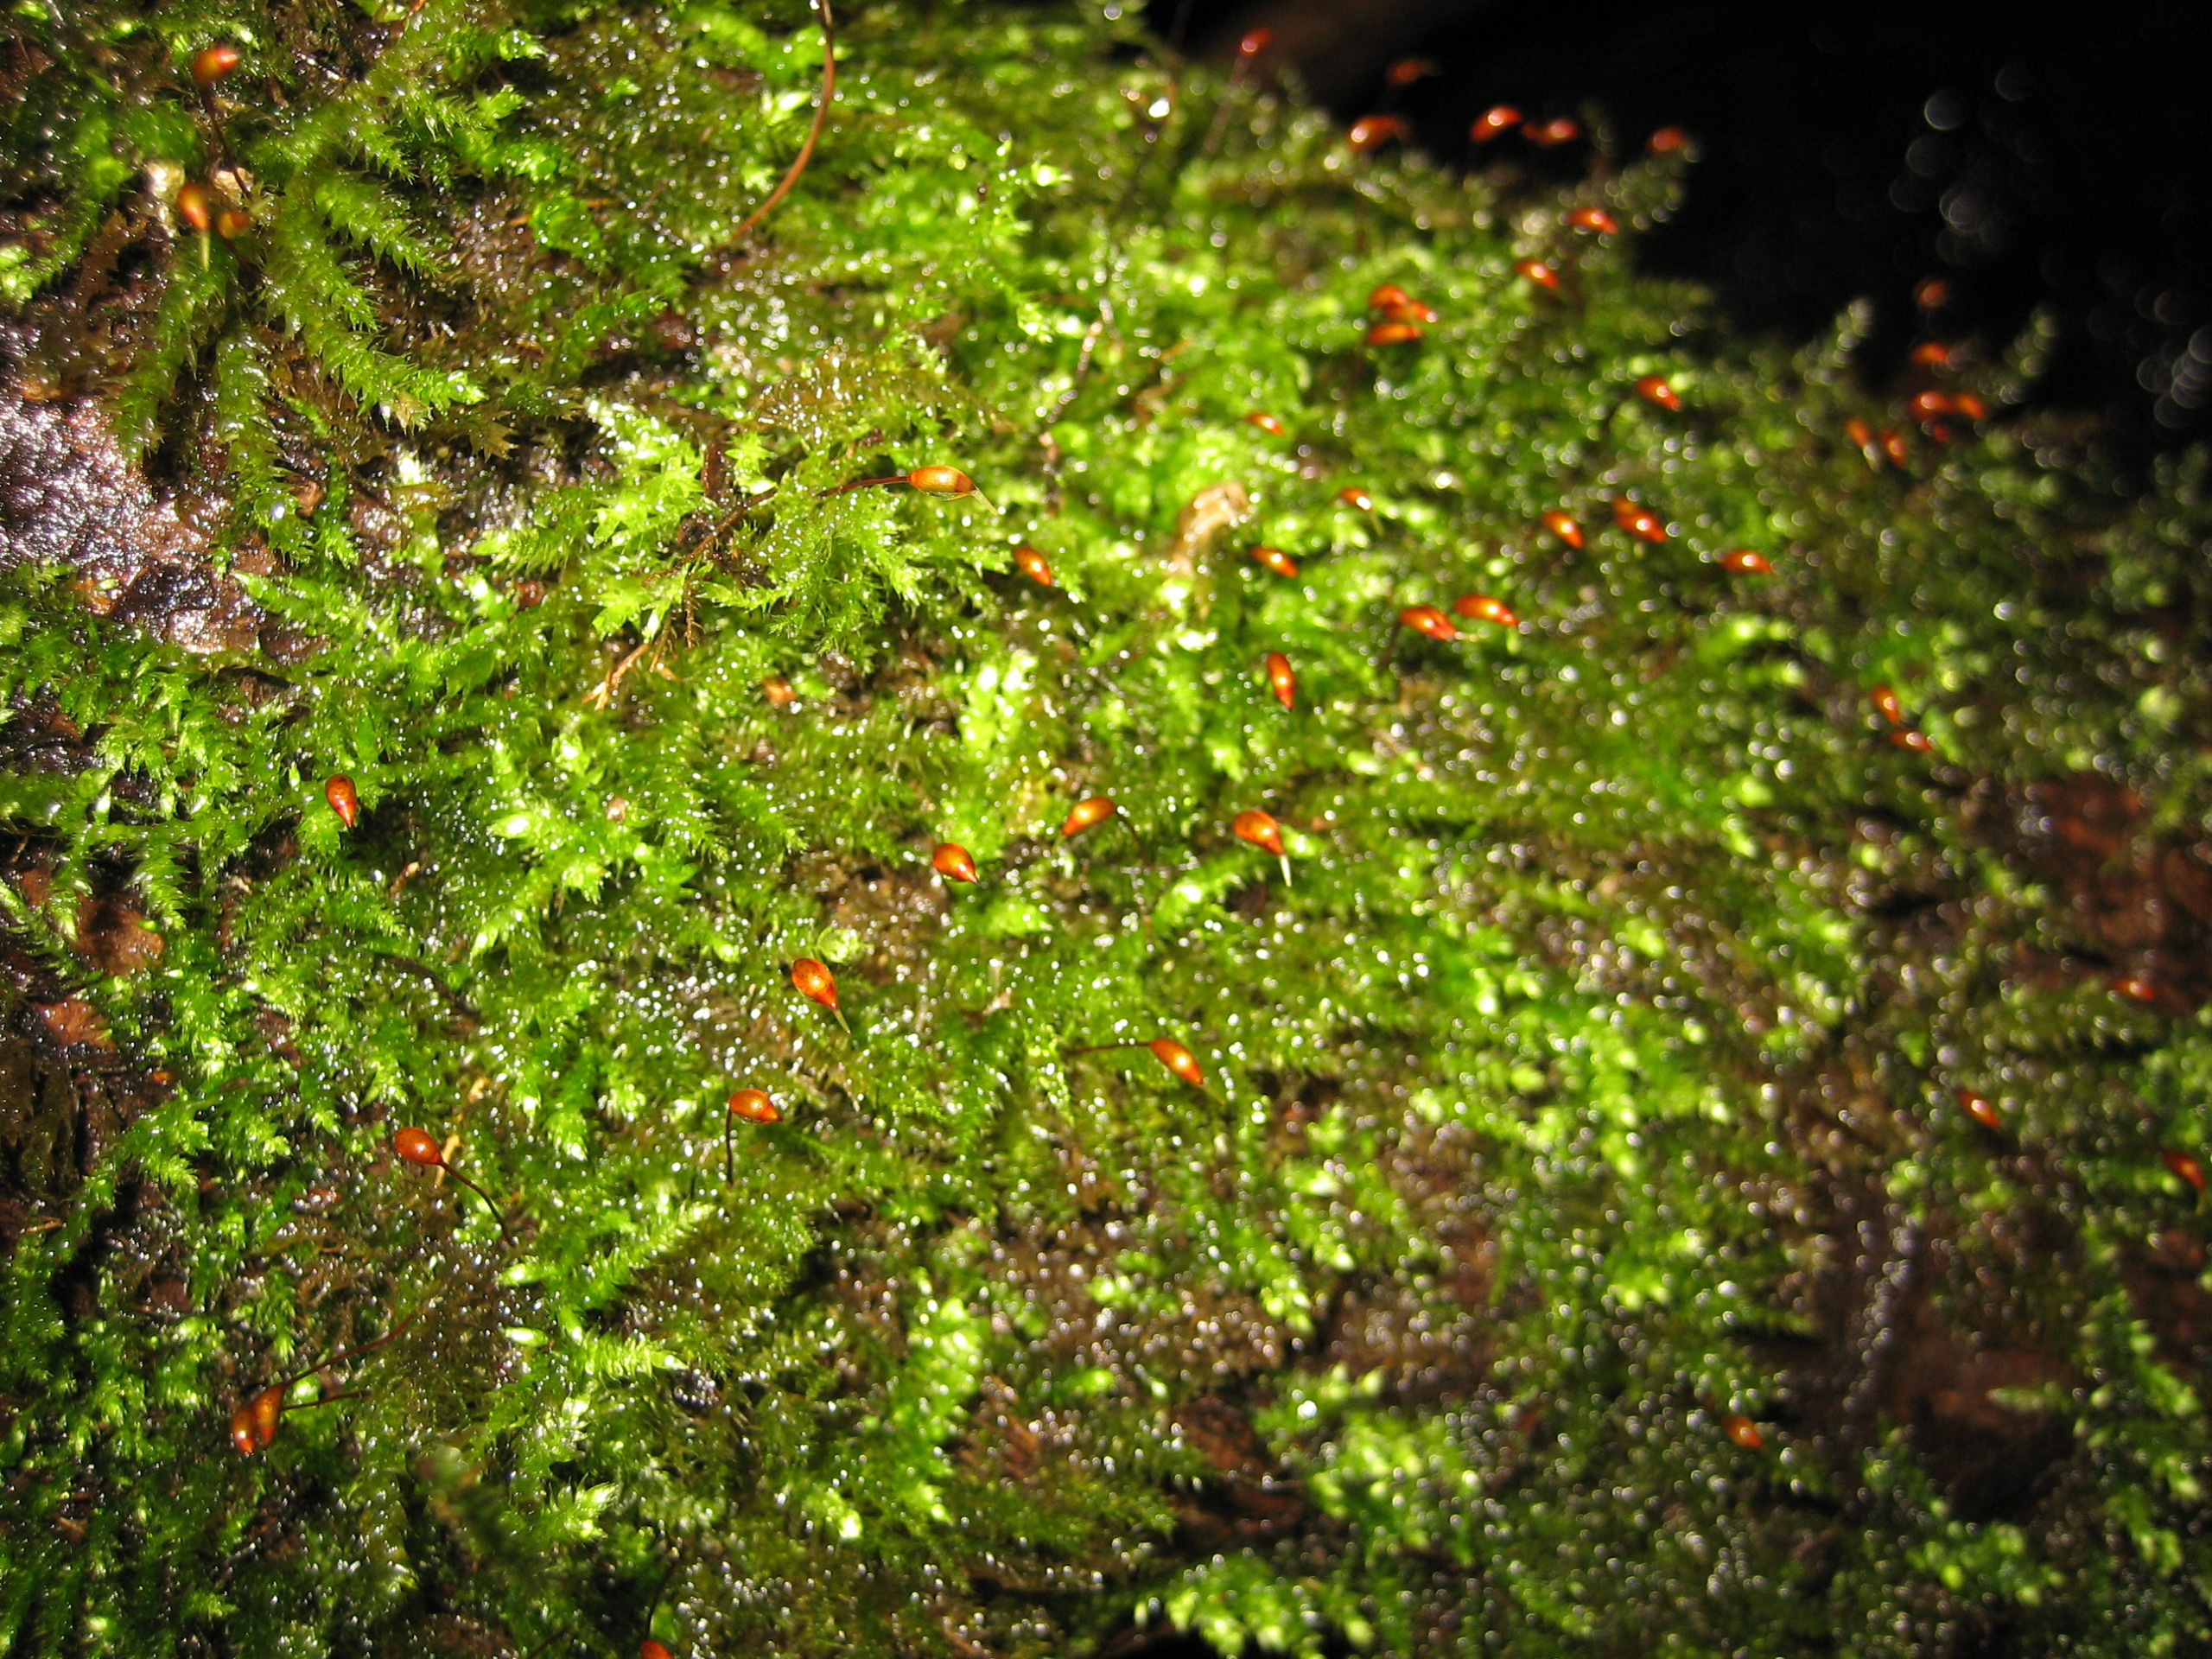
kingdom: Plantae
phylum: Bryophyta
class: Bryopsida
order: Hypnales
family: Brachytheciaceae
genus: Brachythecium
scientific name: Brachythecium rutabulum
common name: Almindelig kortkapsel
